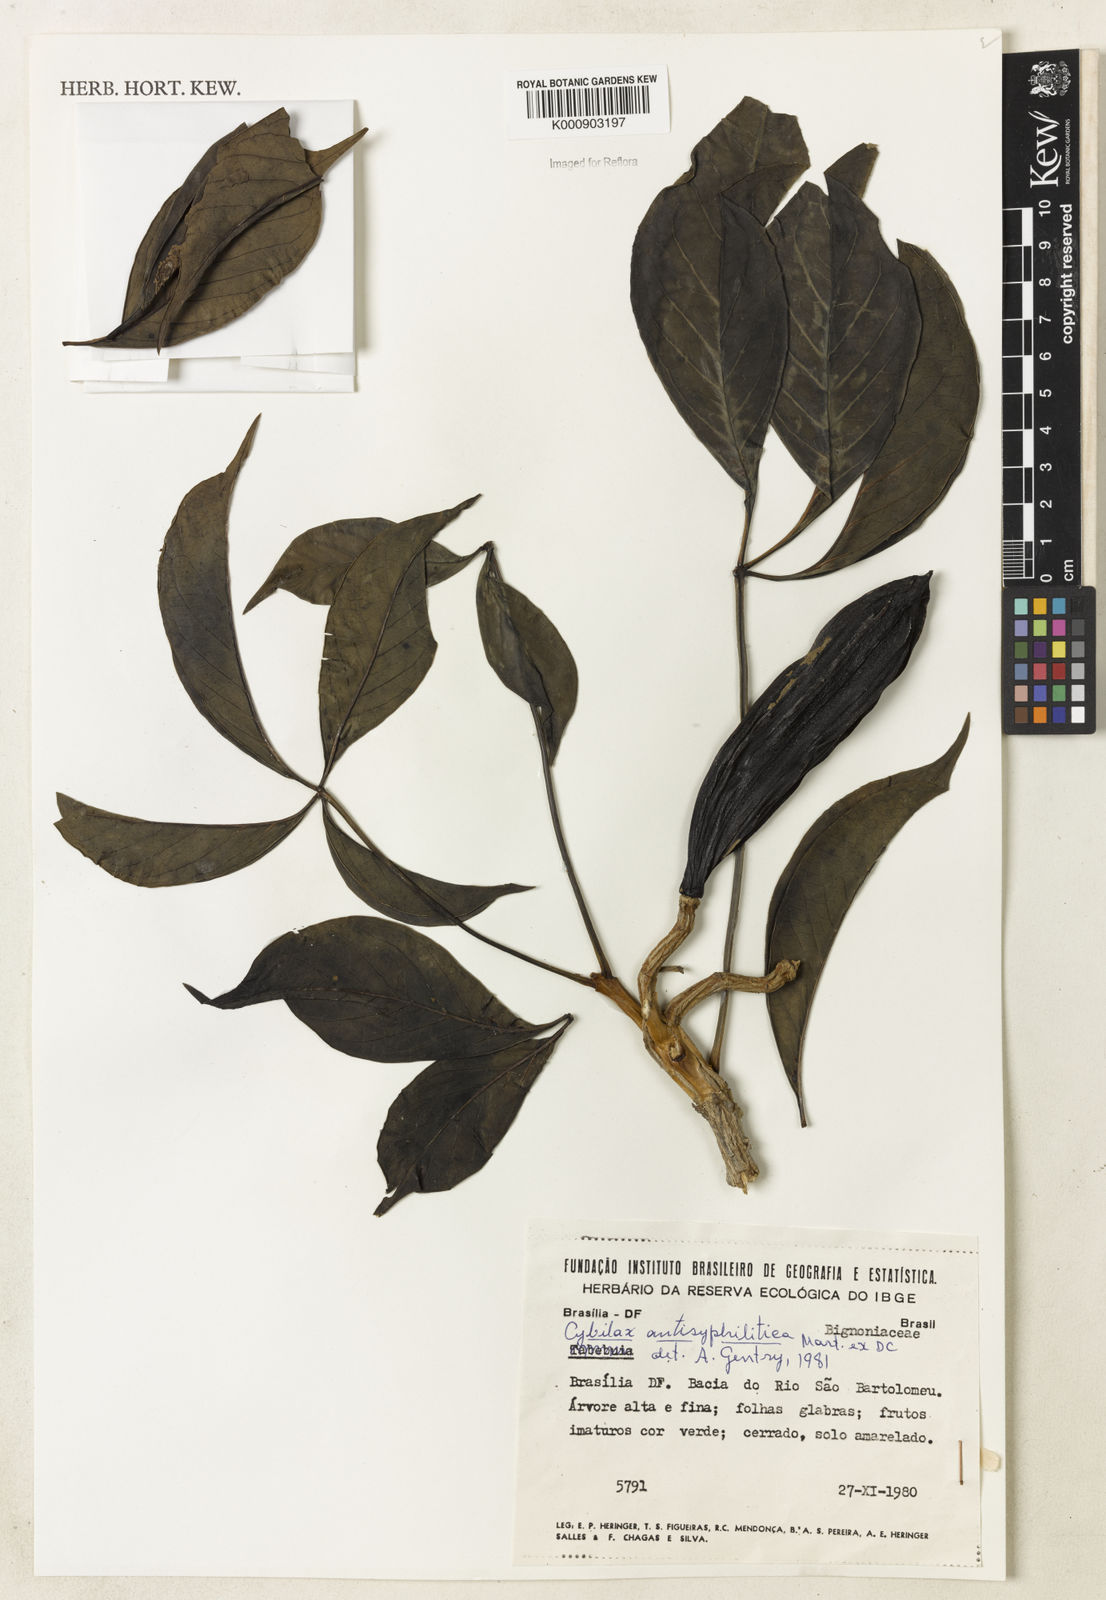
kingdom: Plantae
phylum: Tracheophyta
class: Magnoliopsida
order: Lamiales
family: Bignoniaceae
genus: Cybistax
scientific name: Cybistax antisyphilitica
